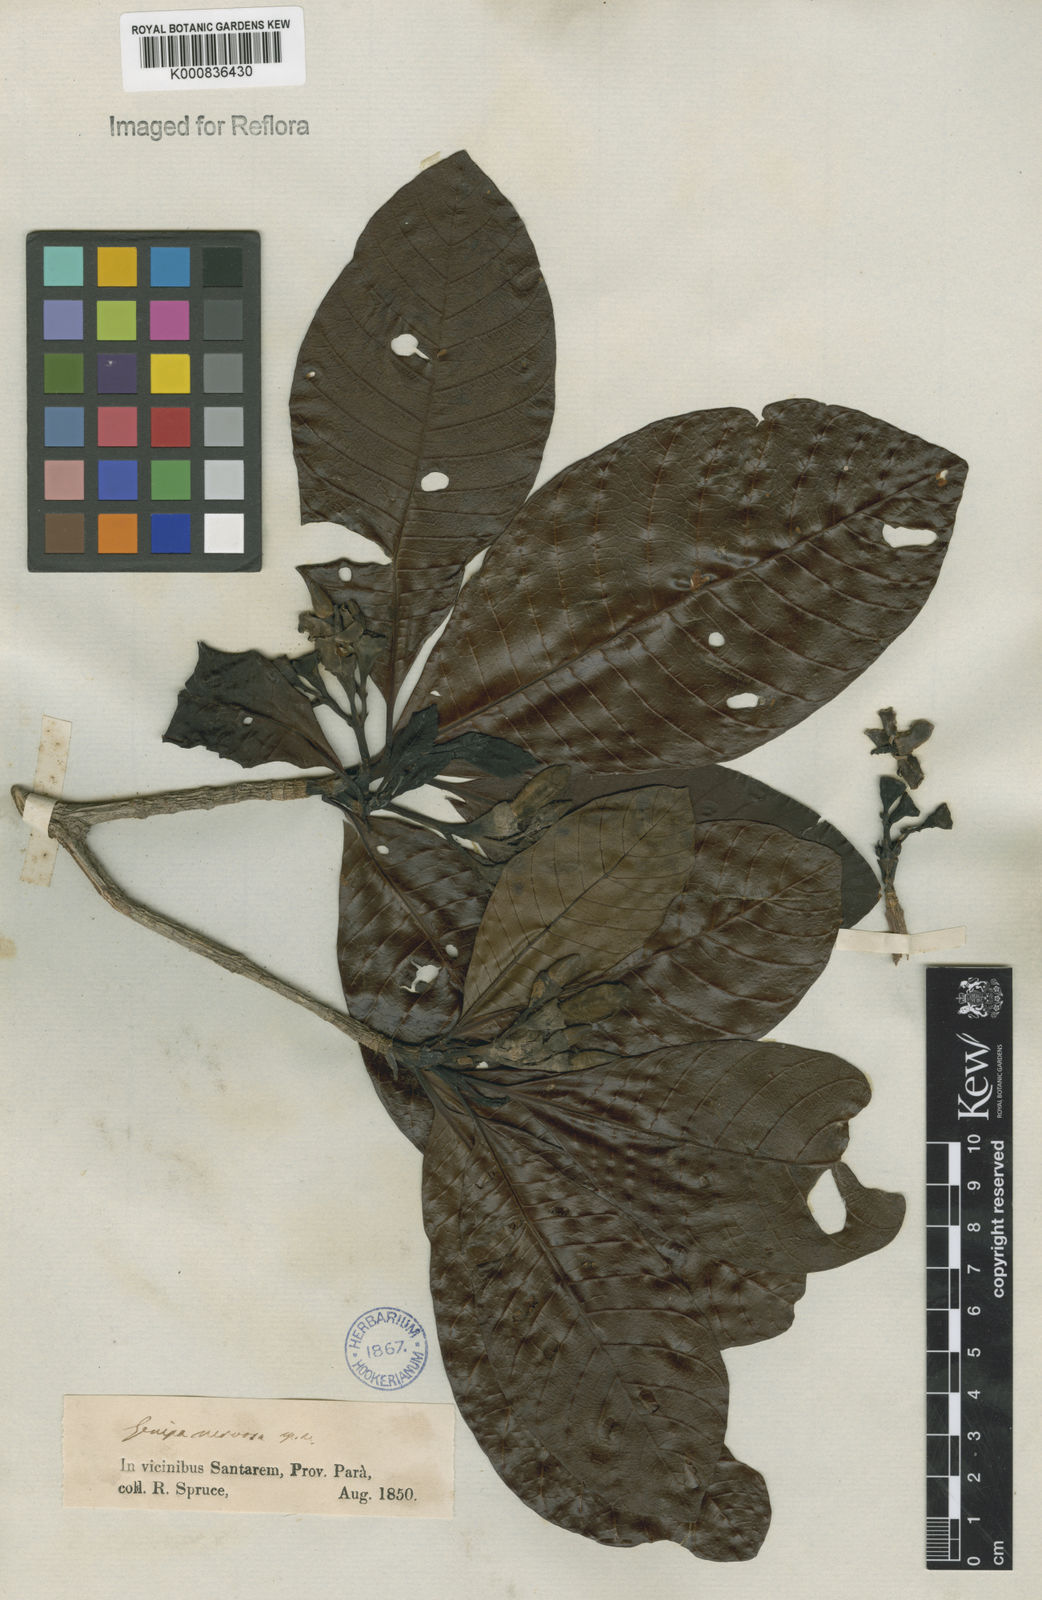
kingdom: Plantae
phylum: Tracheophyta
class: Magnoliopsida
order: Gentianales
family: Rubiaceae
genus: Genipa
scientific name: Genipa americana
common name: Genipap
